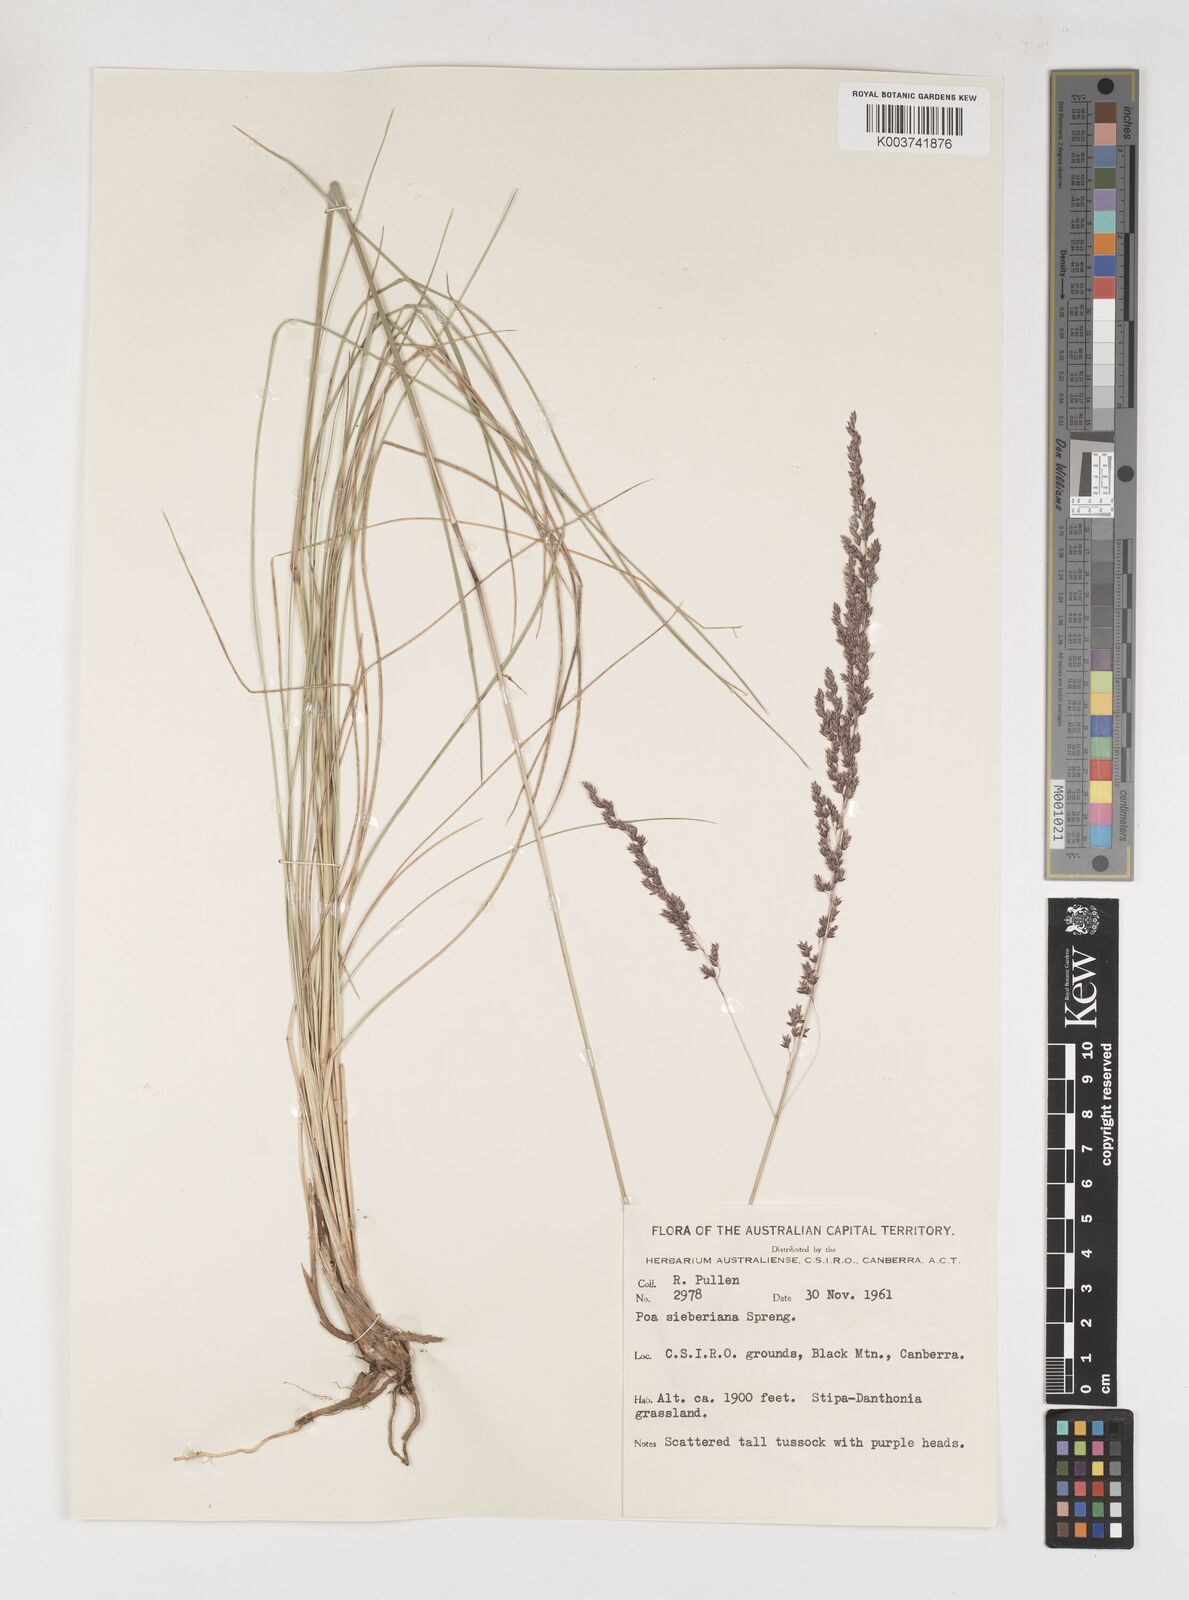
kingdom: Plantae
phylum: Tracheophyta
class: Liliopsida
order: Poales
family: Poaceae
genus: Poa
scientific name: Poa sieberiana
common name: Tussock poa
